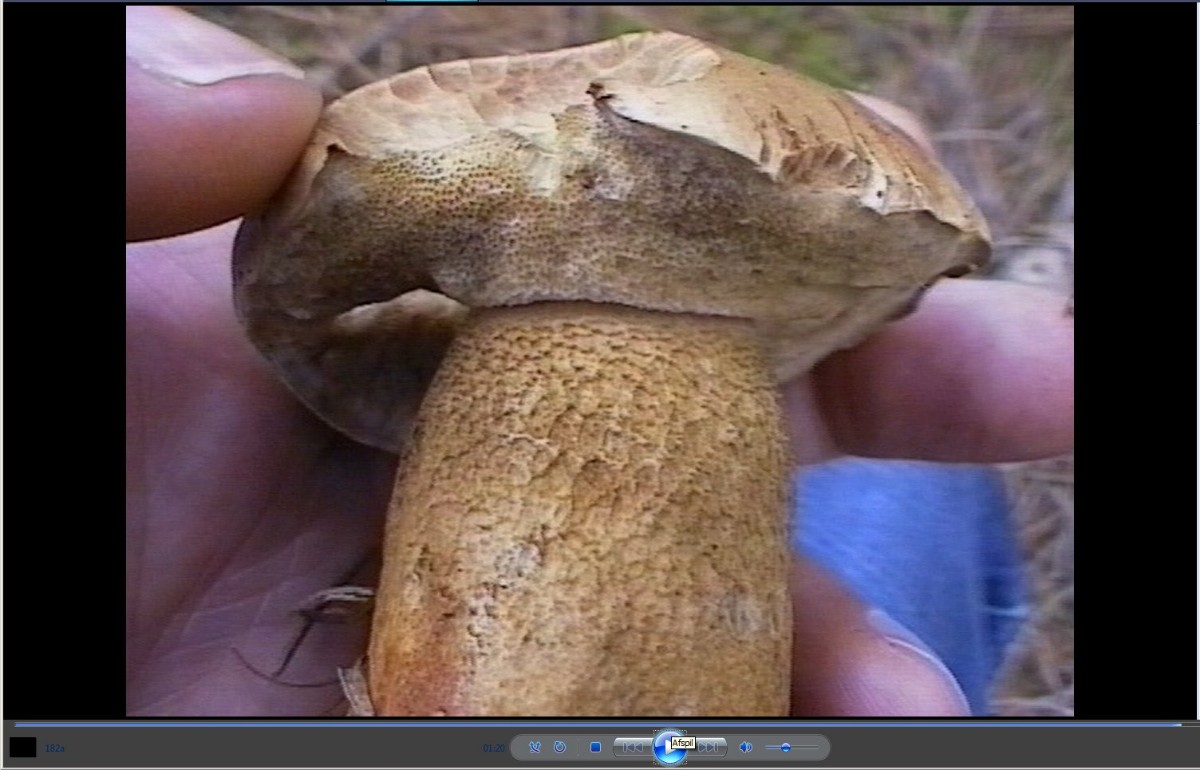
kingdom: Fungi
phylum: Basidiomycota
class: Agaricomycetes
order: Boletales
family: Boletaceae
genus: Tylopilus
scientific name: Tylopilus felleus
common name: galderørhat
